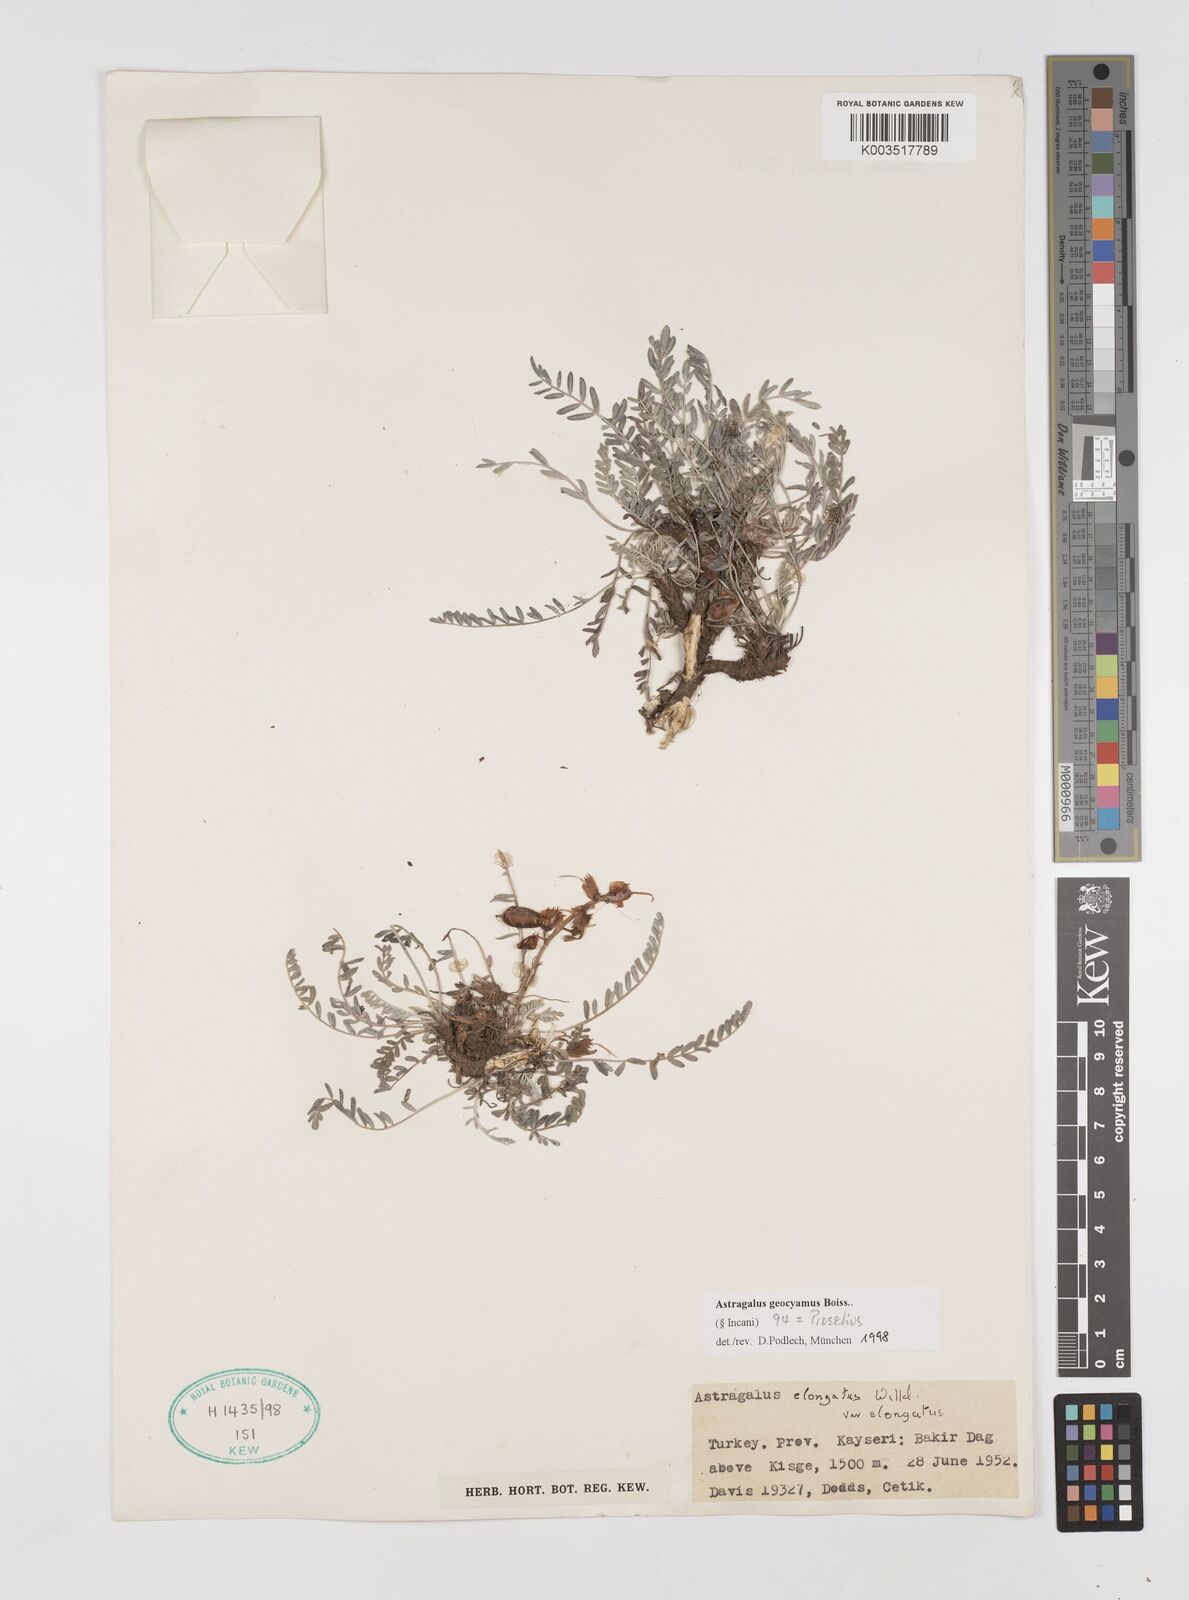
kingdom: Plantae
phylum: Tracheophyta
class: Magnoliopsida
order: Fabales
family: Fabaceae
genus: Astragalus
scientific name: Astragalus geocyamus
